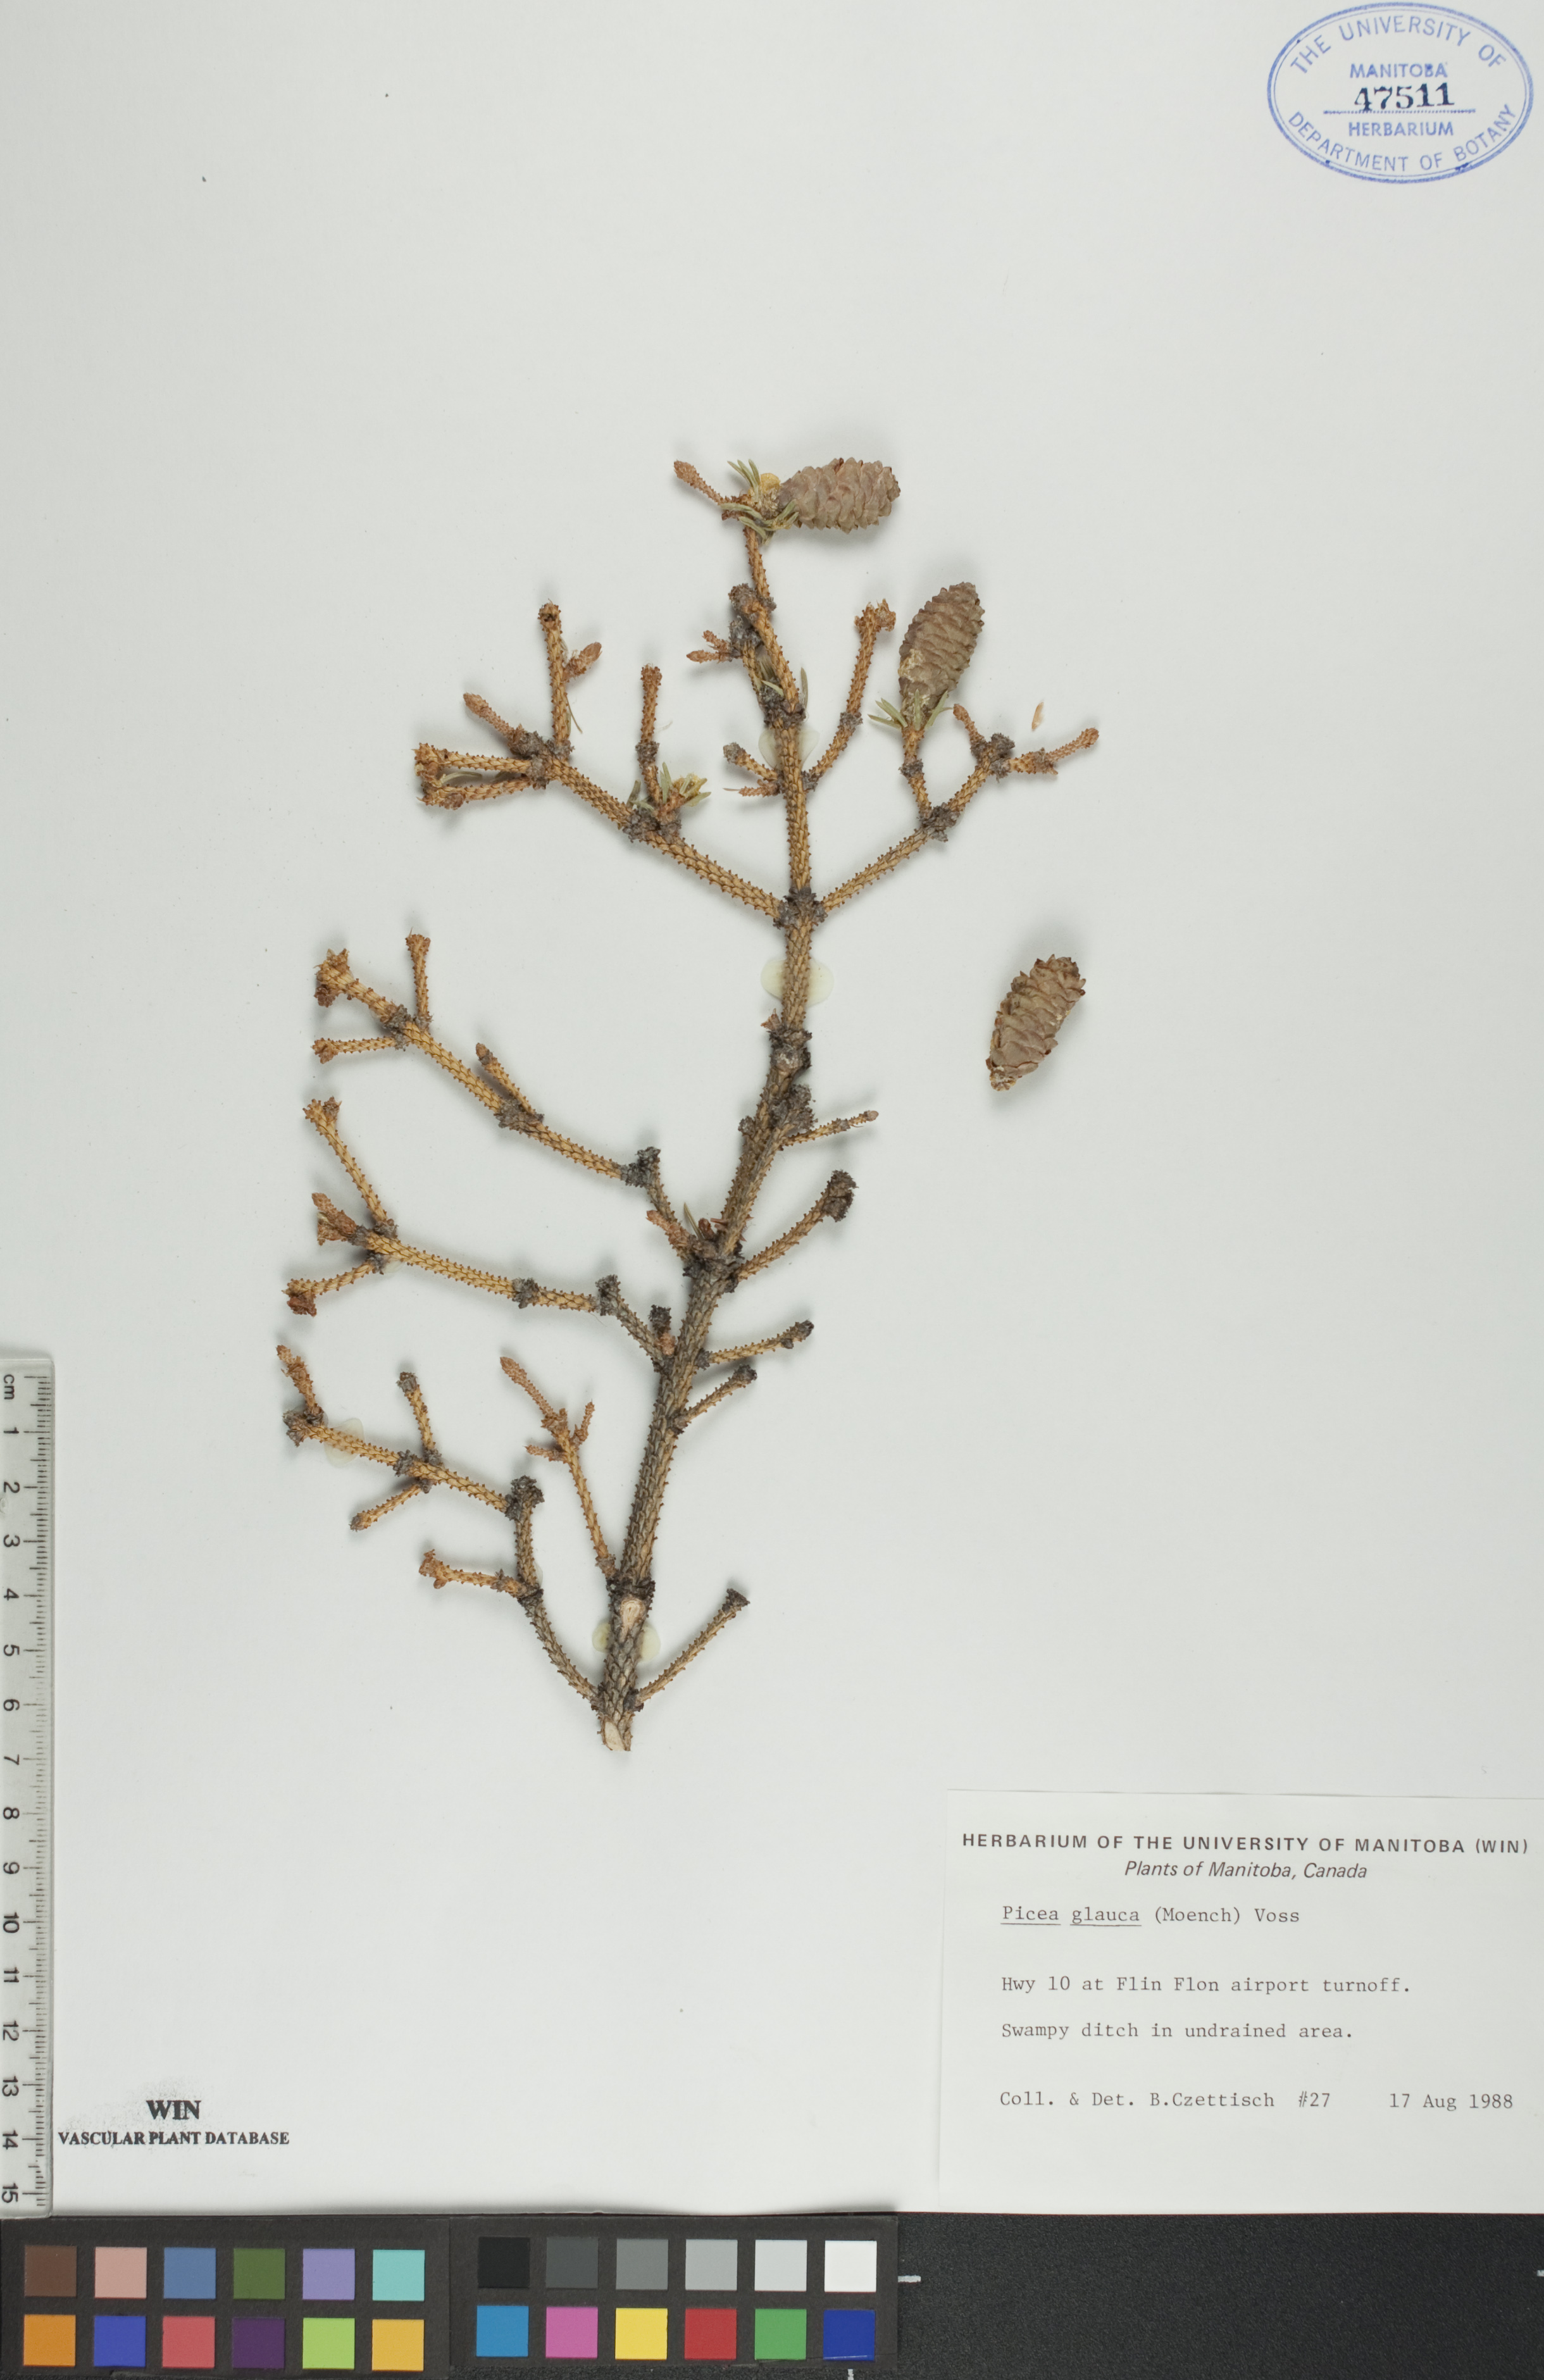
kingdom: Plantae
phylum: Tracheophyta
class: Pinopsida
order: Pinales
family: Pinaceae
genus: Picea
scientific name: Picea glauca
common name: White spruce
